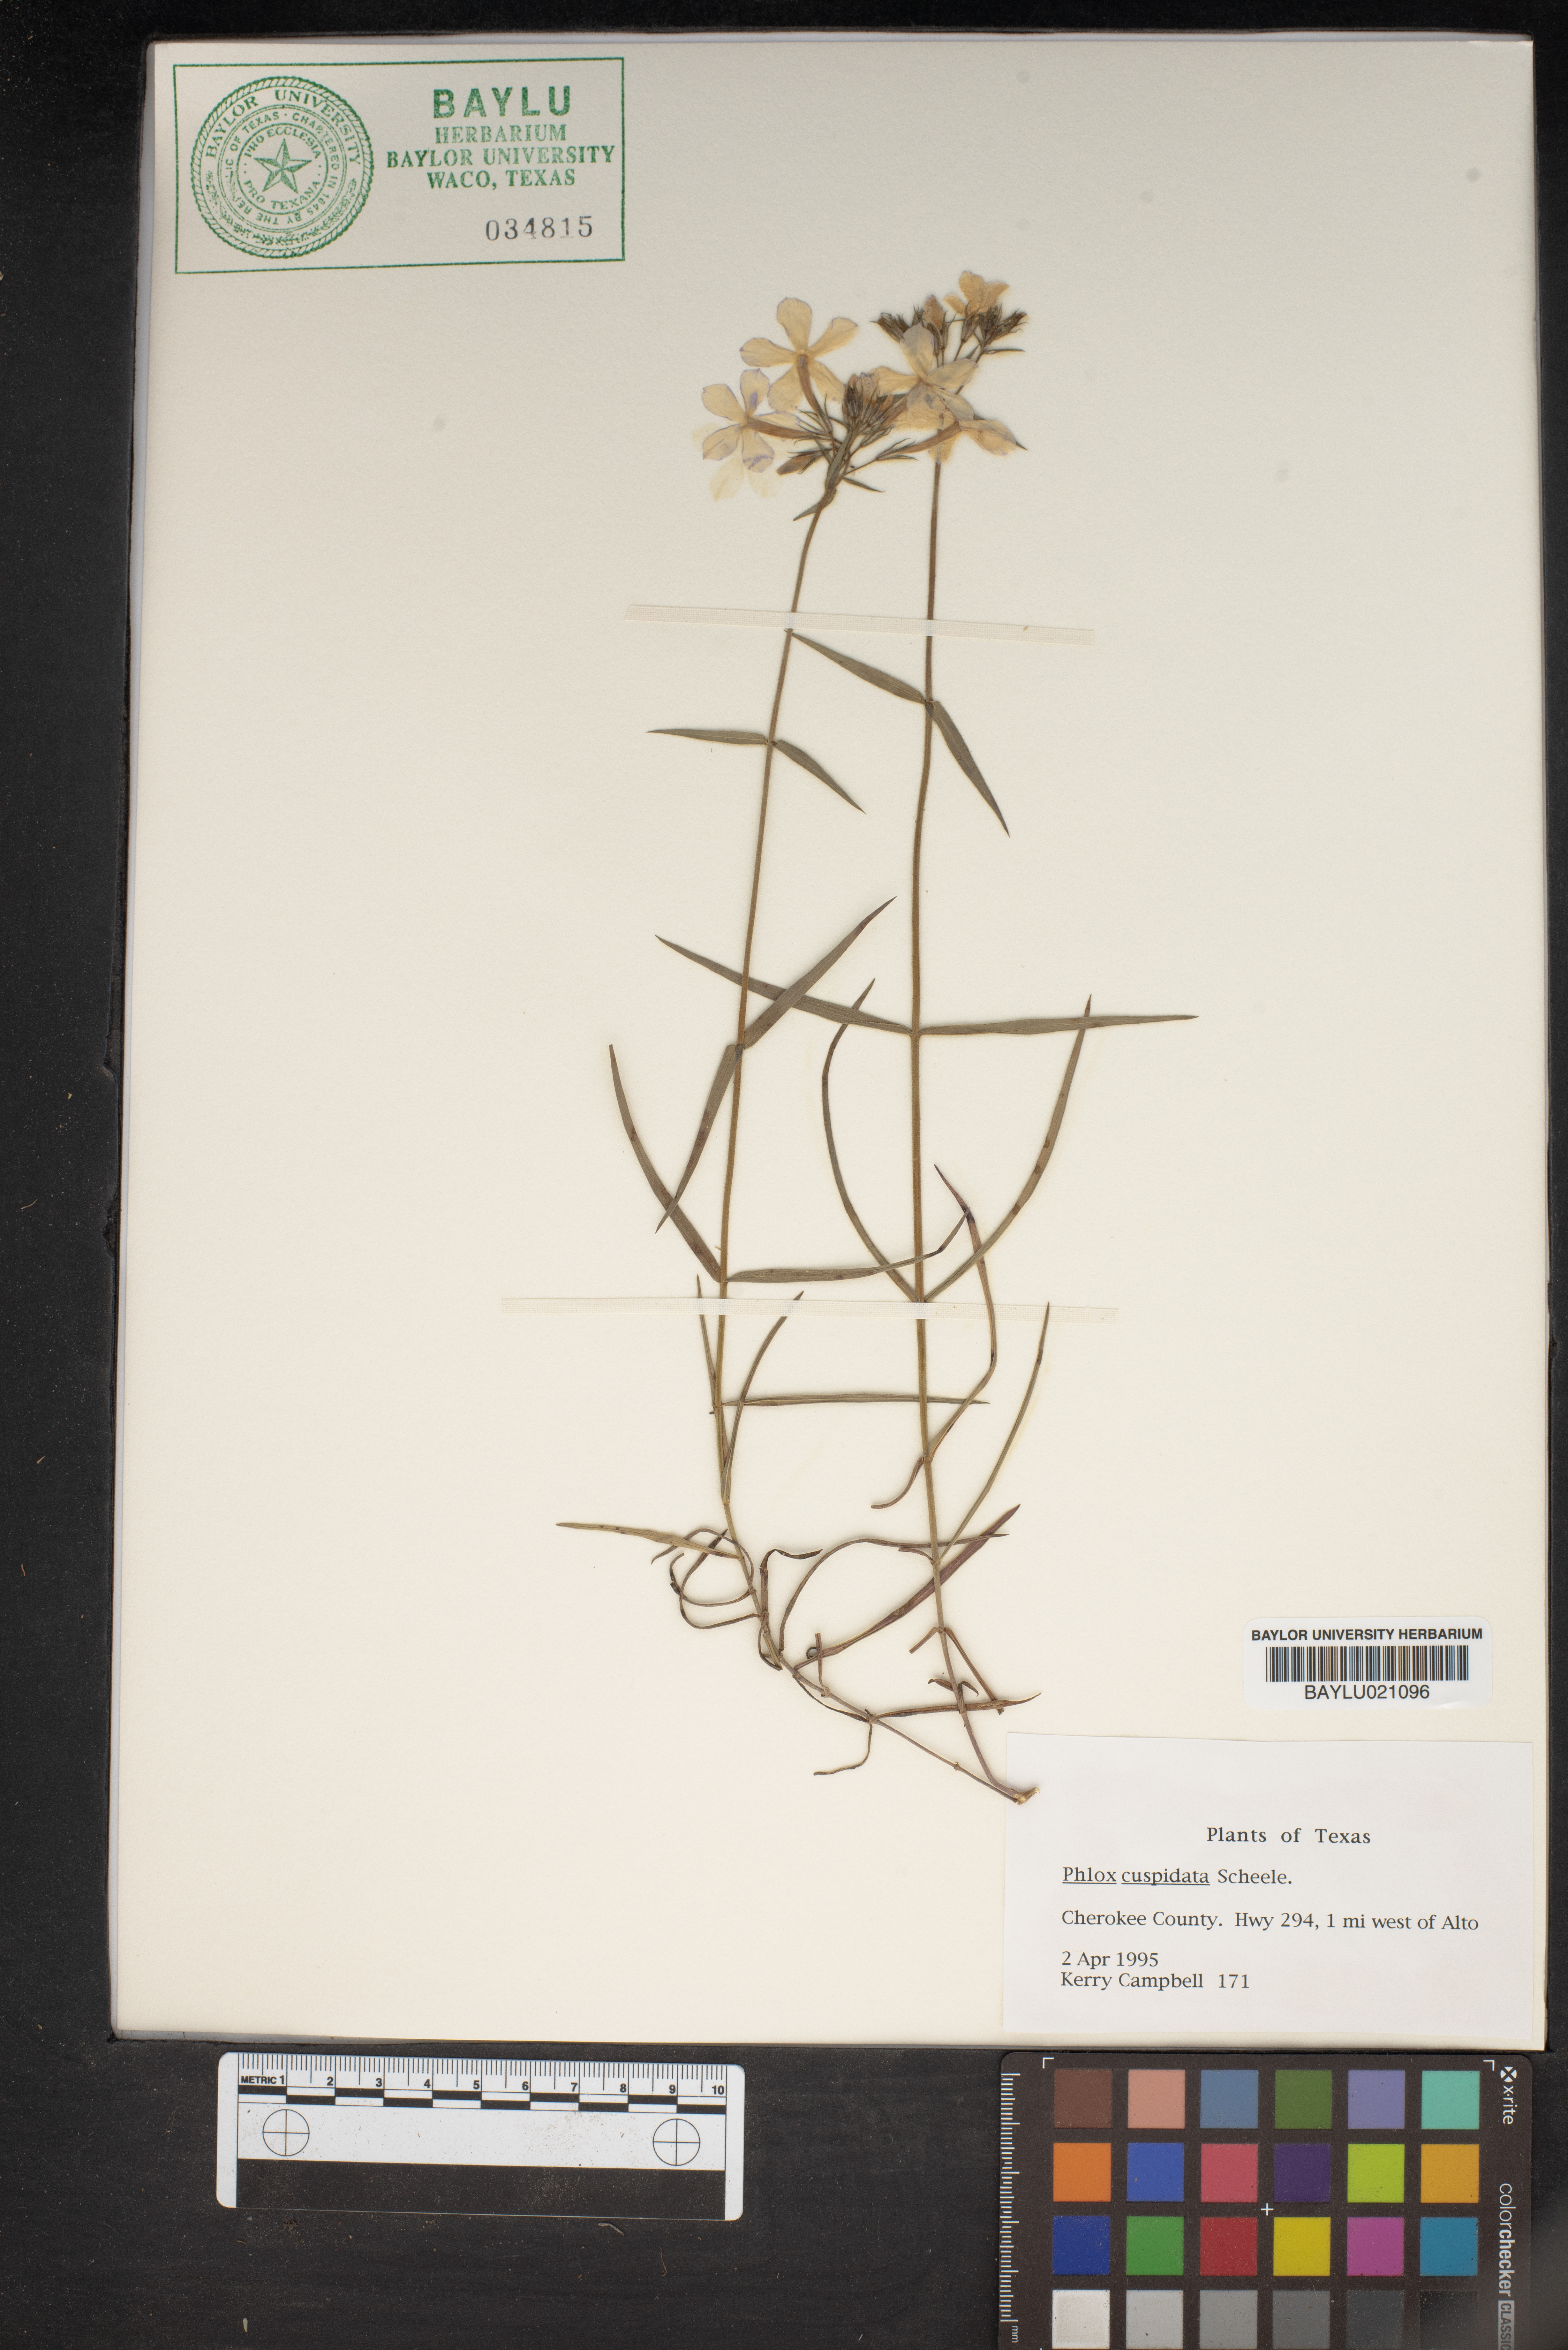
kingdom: Plantae
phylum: Tracheophyta
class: Magnoliopsida
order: Ericales
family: Polemoniaceae
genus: Phlox
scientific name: Phlox cuspidata
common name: Pointed phlox
